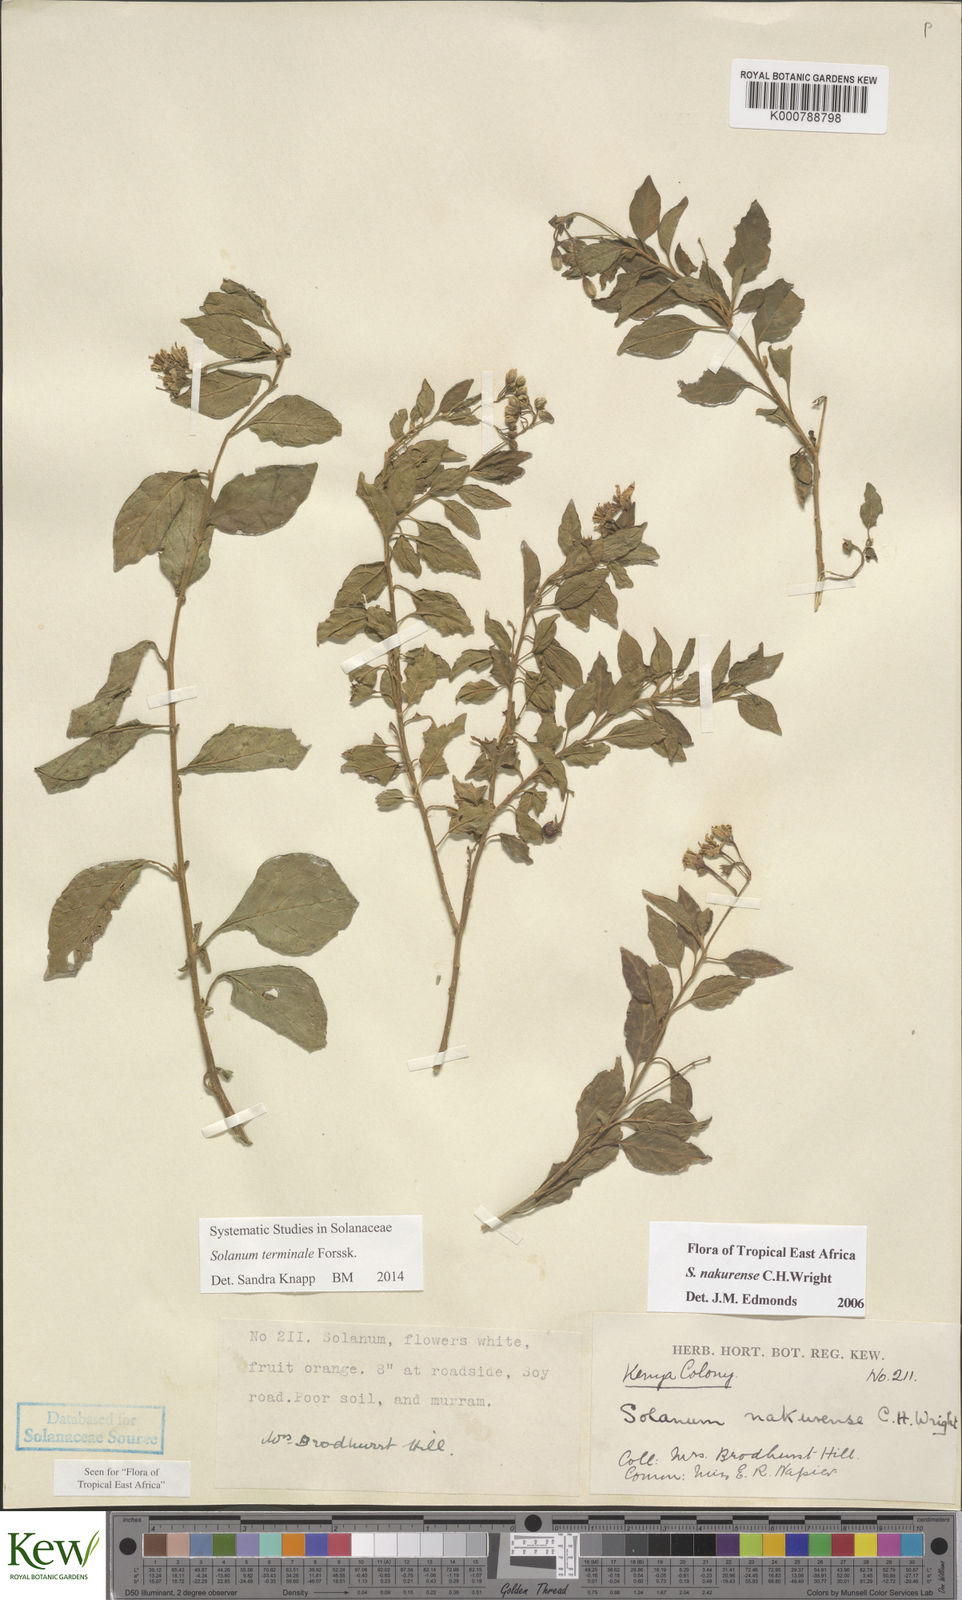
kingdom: Plantae
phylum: Tracheophyta
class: Magnoliopsida
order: Solanales
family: Solanaceae
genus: Solanum
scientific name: Solanum nakurense
